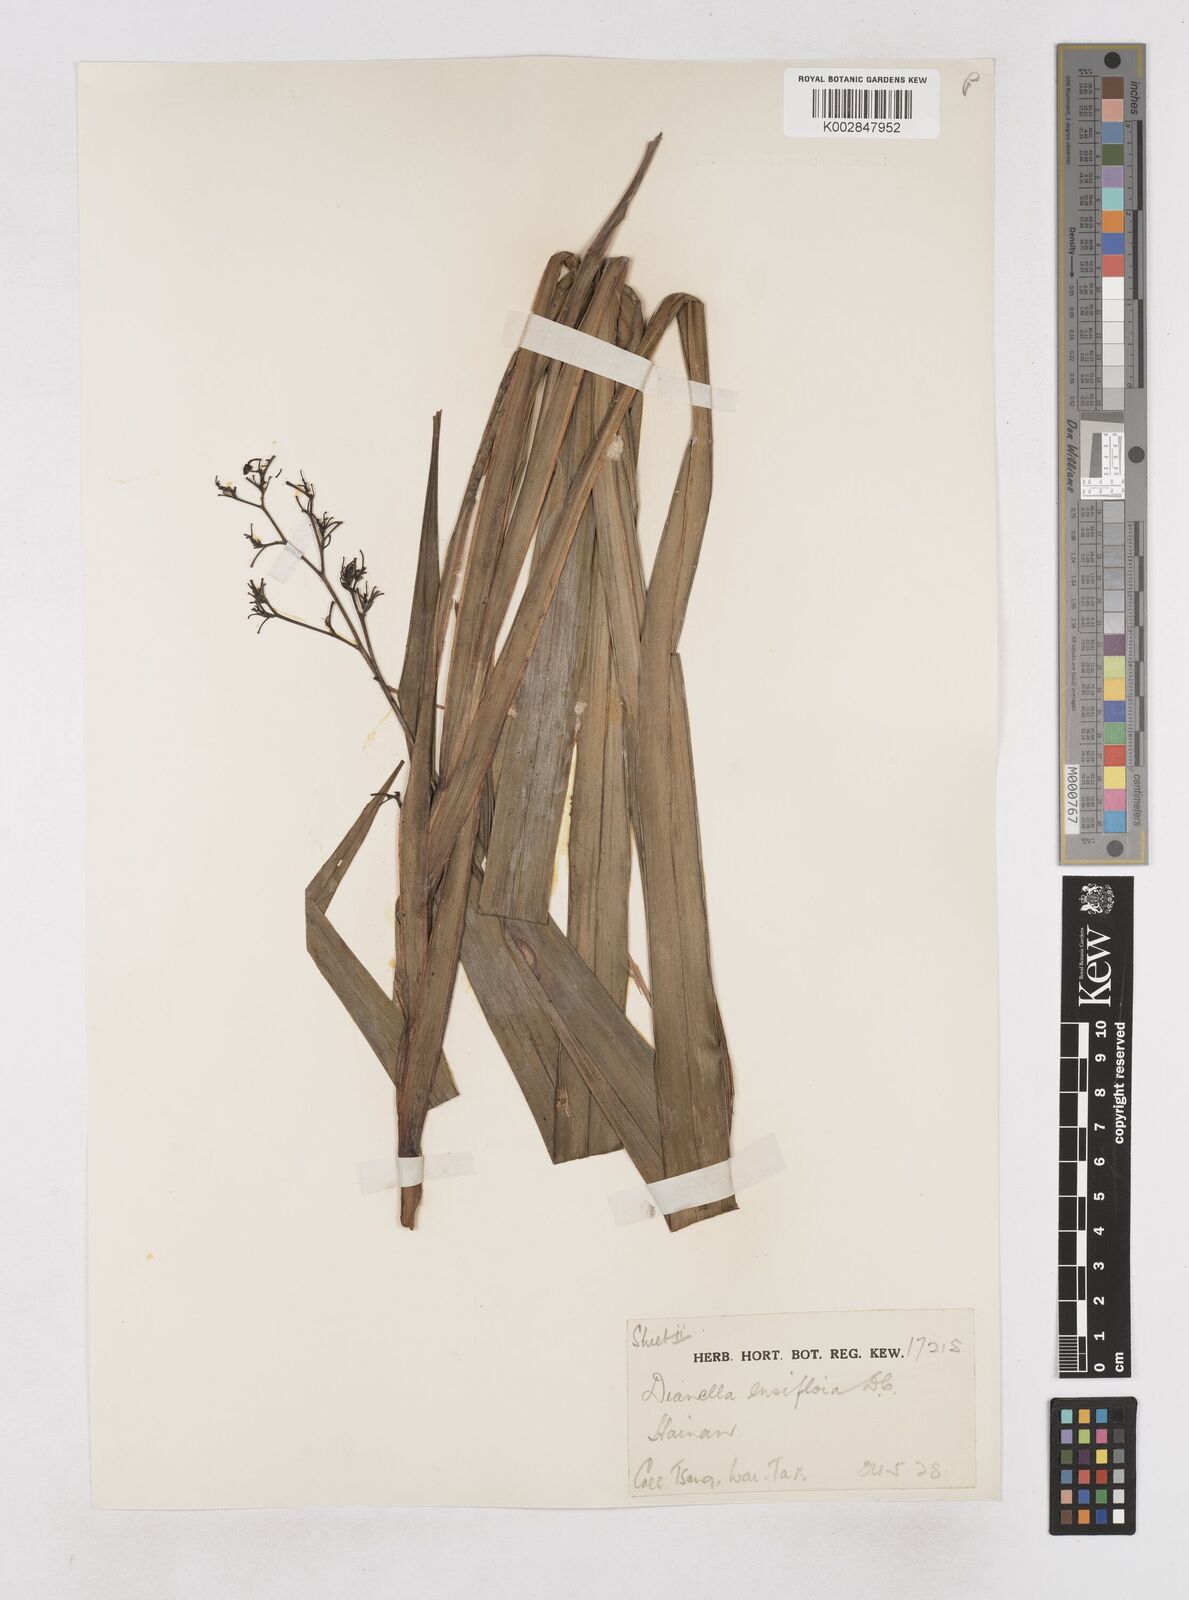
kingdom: Plantae
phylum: Tracheophyta
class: Liliopsida
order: Asparagales
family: Asphodelaceae
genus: Dianella
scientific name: Dianella ensifolia
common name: New zealand lilyplant
